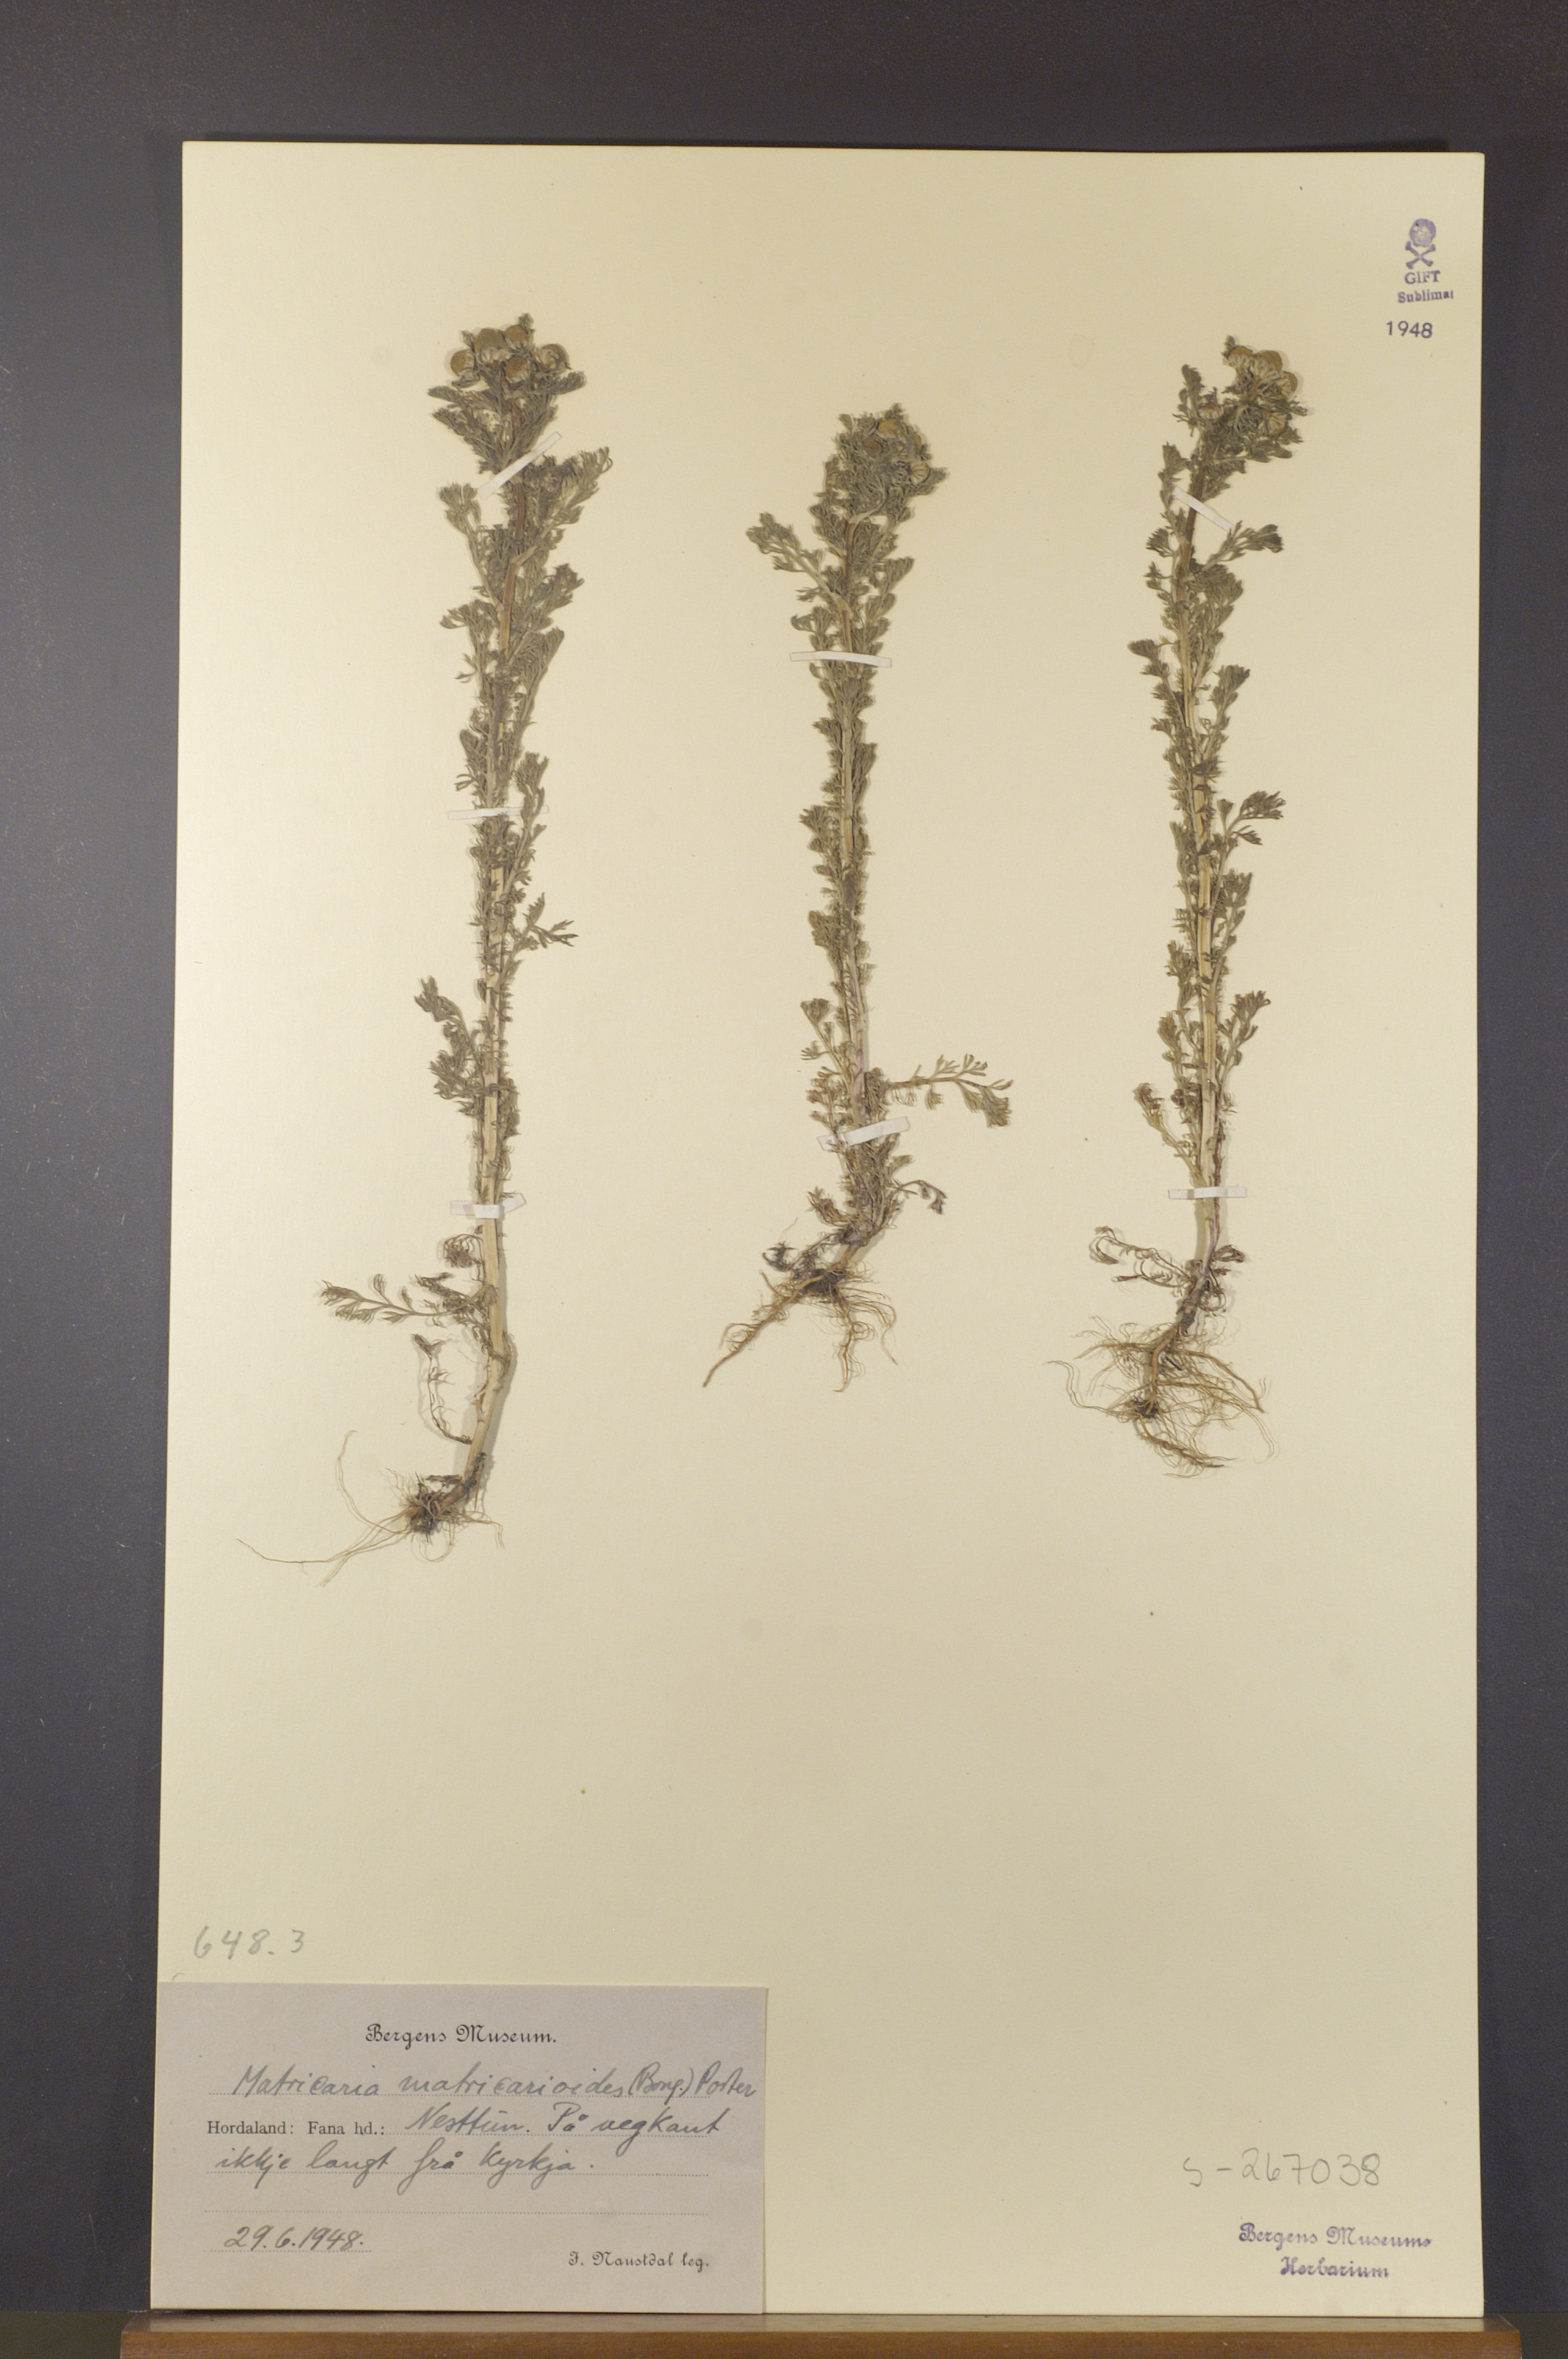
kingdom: Plantae
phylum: Tracheophyta
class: Magnoliopsida
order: Asterales
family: Asteraceae
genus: Matricaria
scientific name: Matricaria discoidea
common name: Disc mayweed
